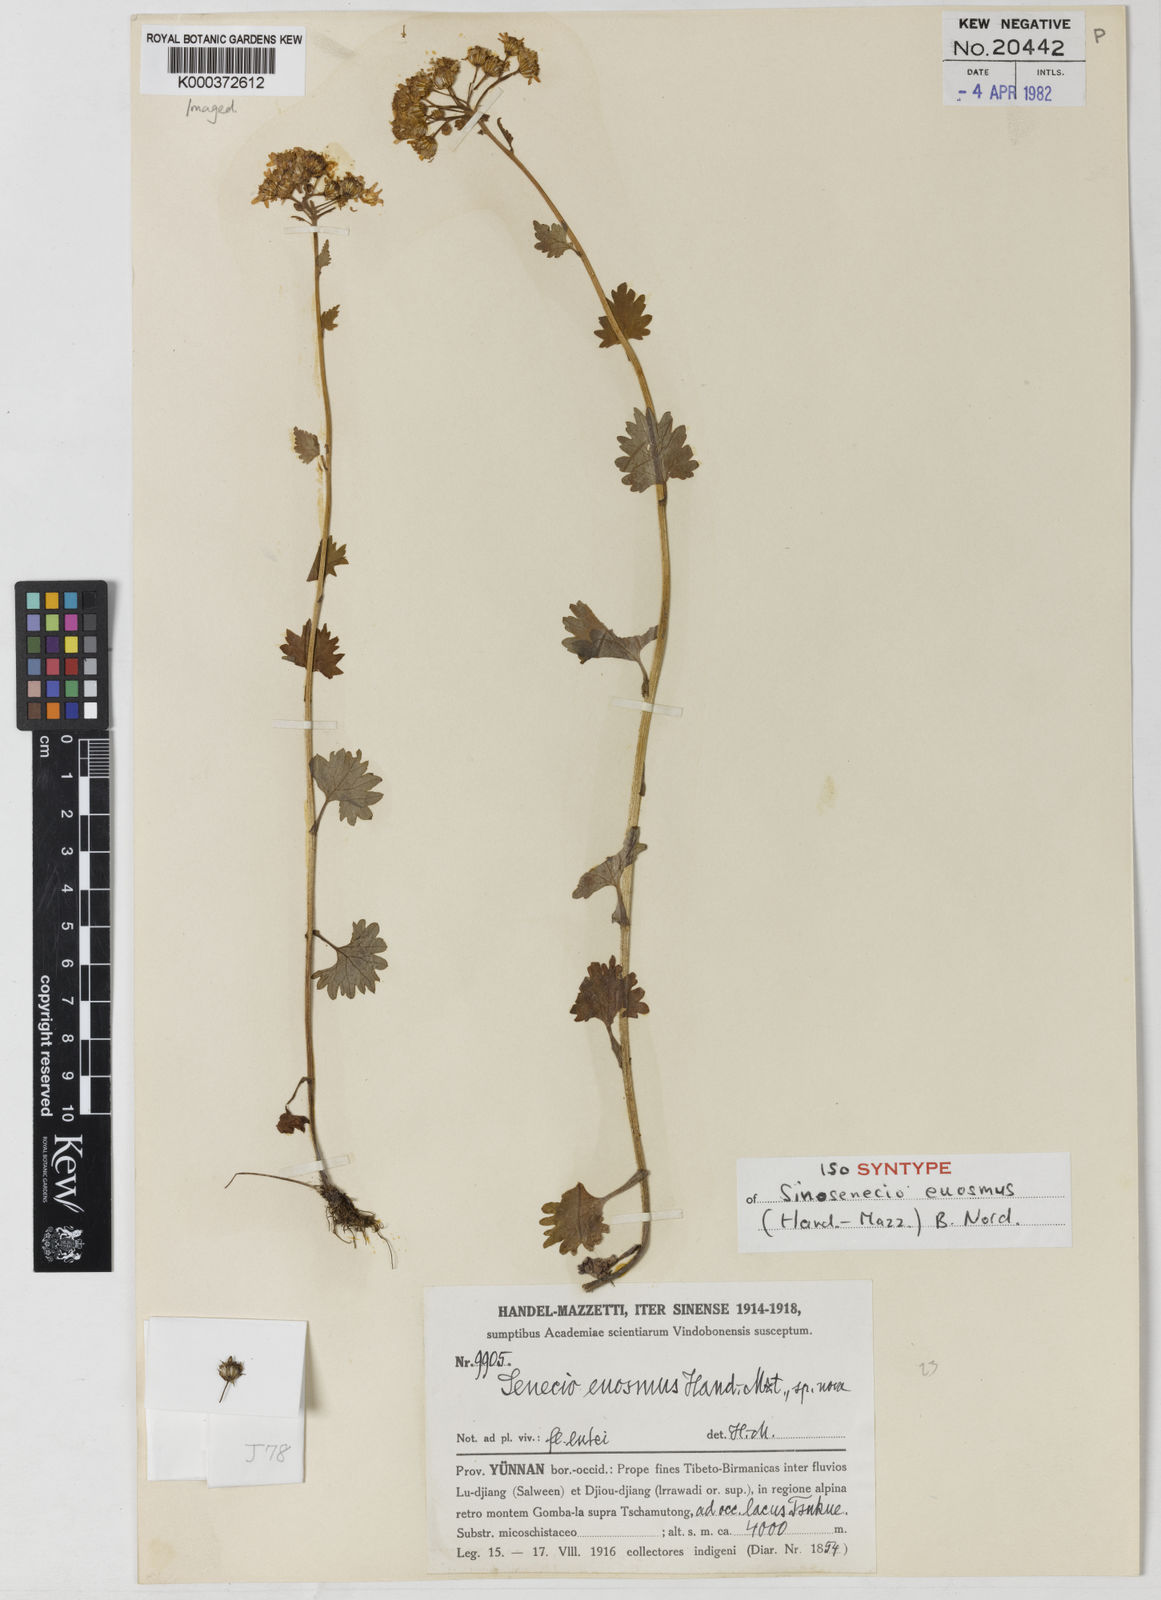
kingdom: Plantae
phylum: Tracheophyta
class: Magnoliopsida
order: Asterales
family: Asteraceae
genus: Sinosenecio
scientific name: Sinosenecio euosmus
